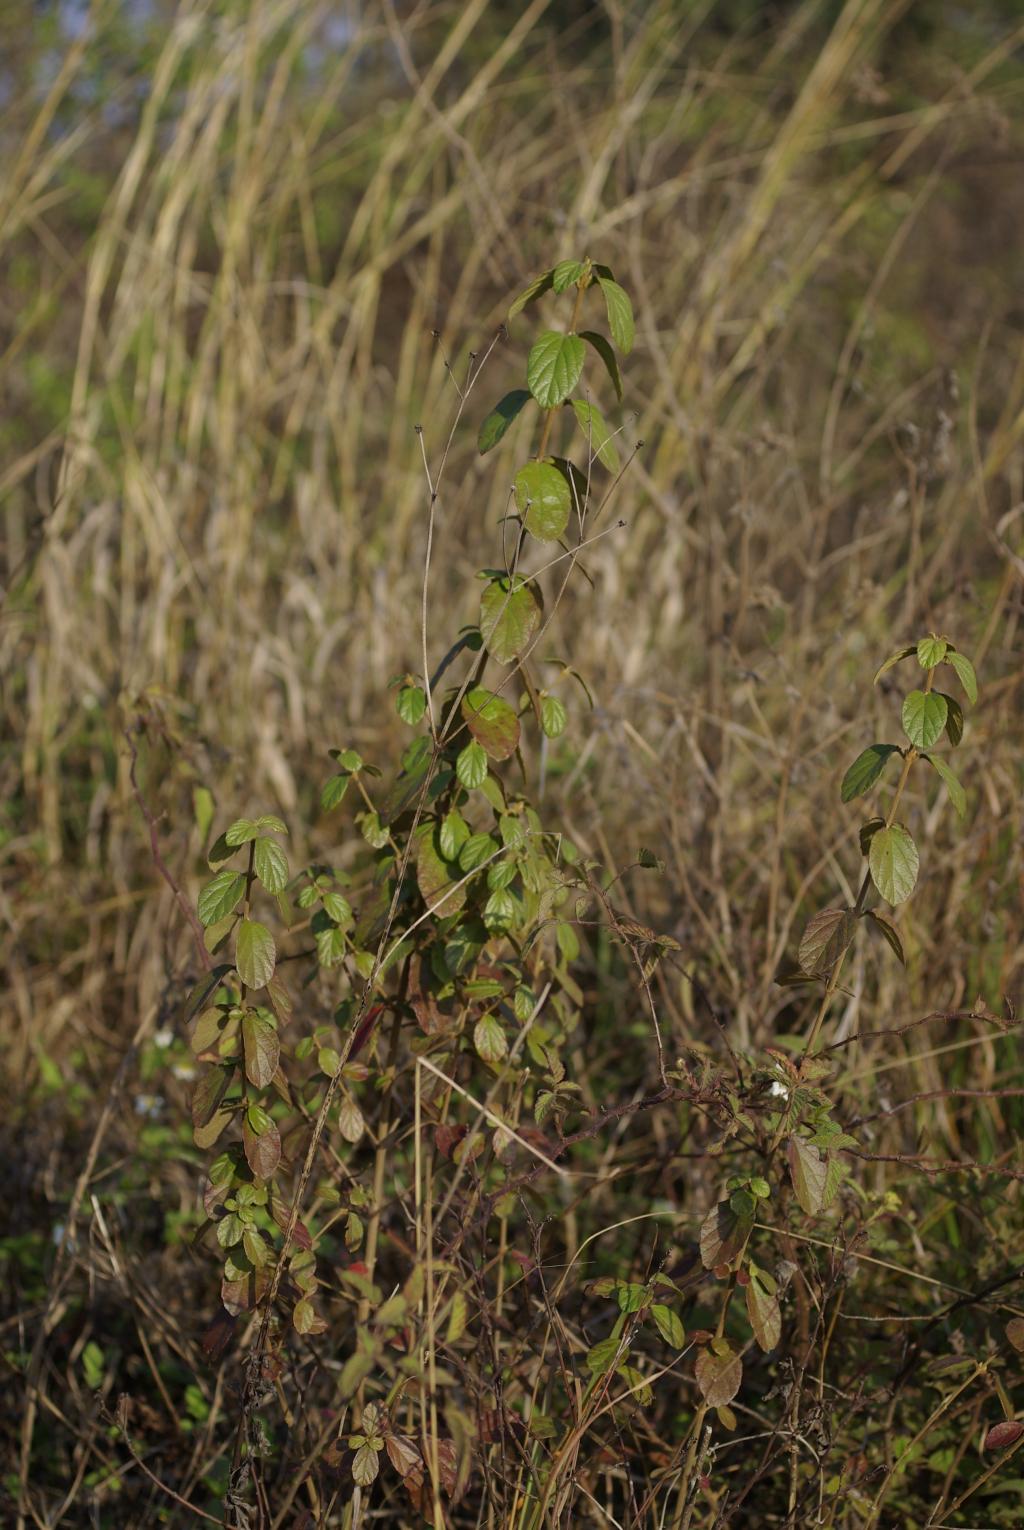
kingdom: Plantae
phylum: Tracheophyta
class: Magnoliopsida
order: Dipsacales
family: Viburnaceae
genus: Viburnum
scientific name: Viburnum luzonicum
